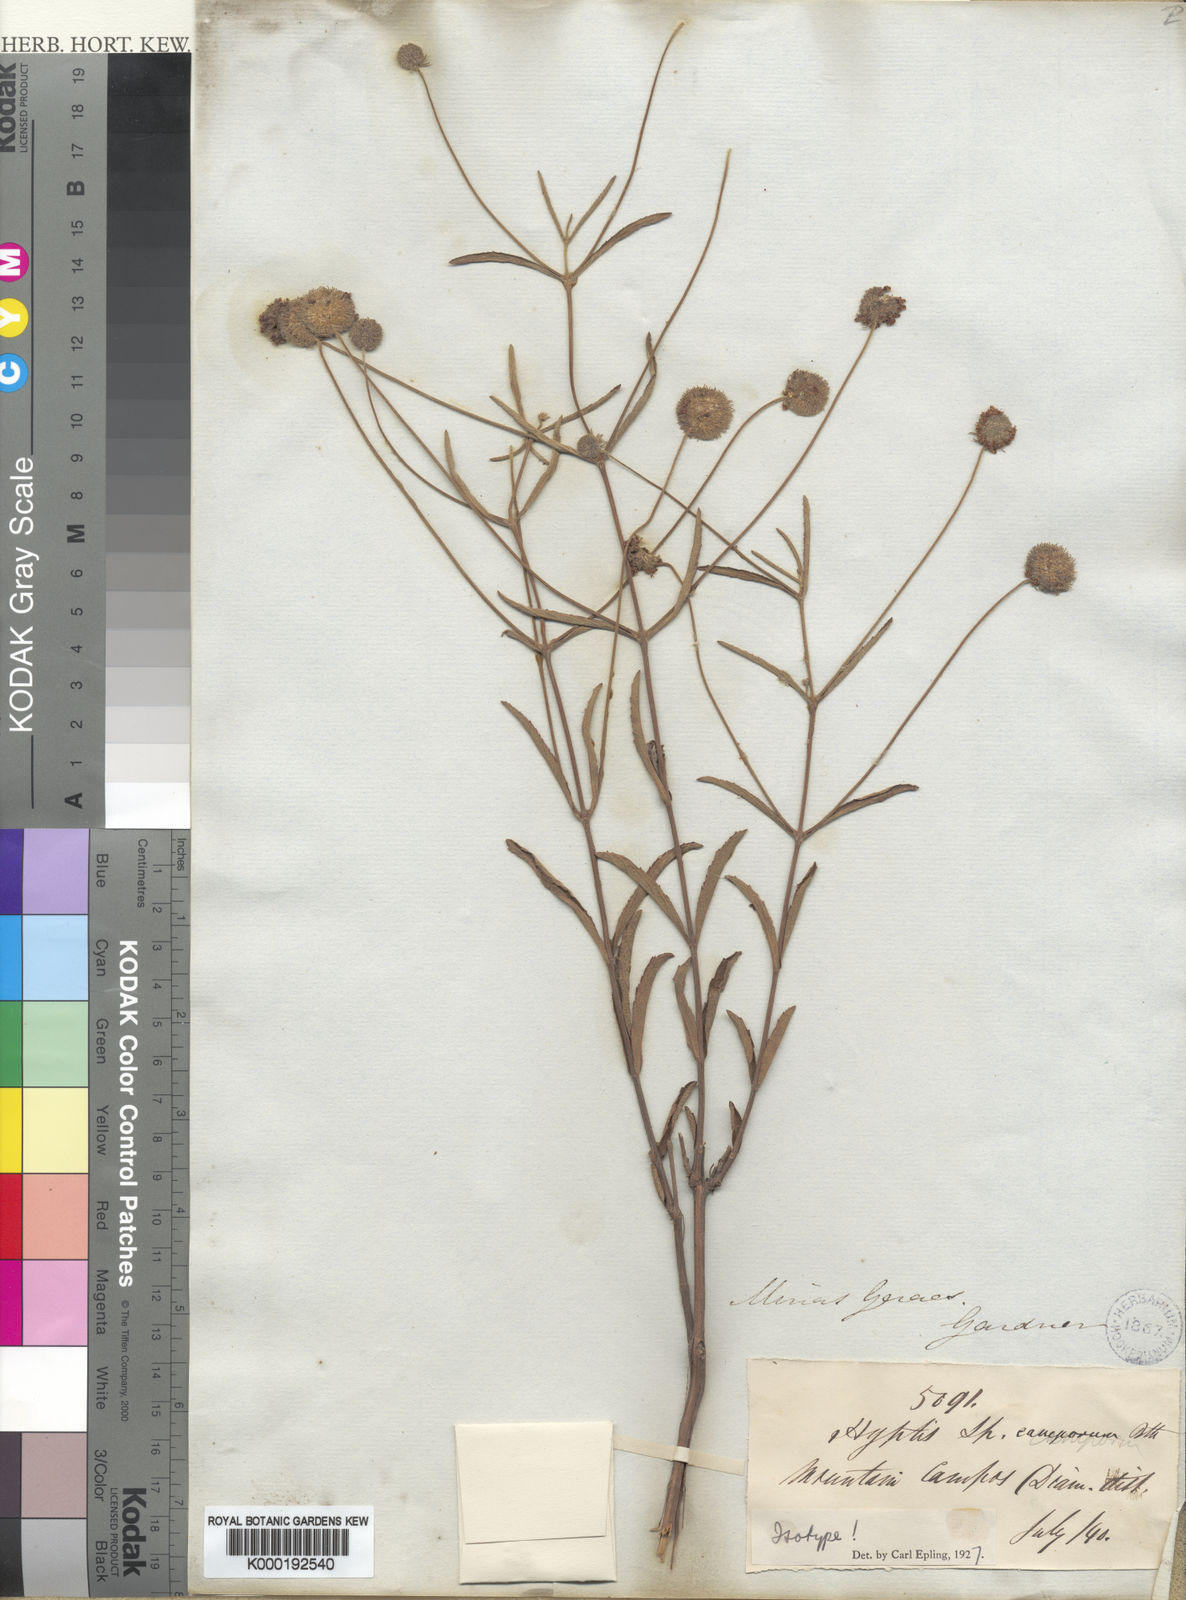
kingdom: Plantae
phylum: Tracheophyta
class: Magnoliopsida
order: Lamiales
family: Lamiaceae
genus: Cyanocephalus
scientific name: Cyanocephalus peduncularis
